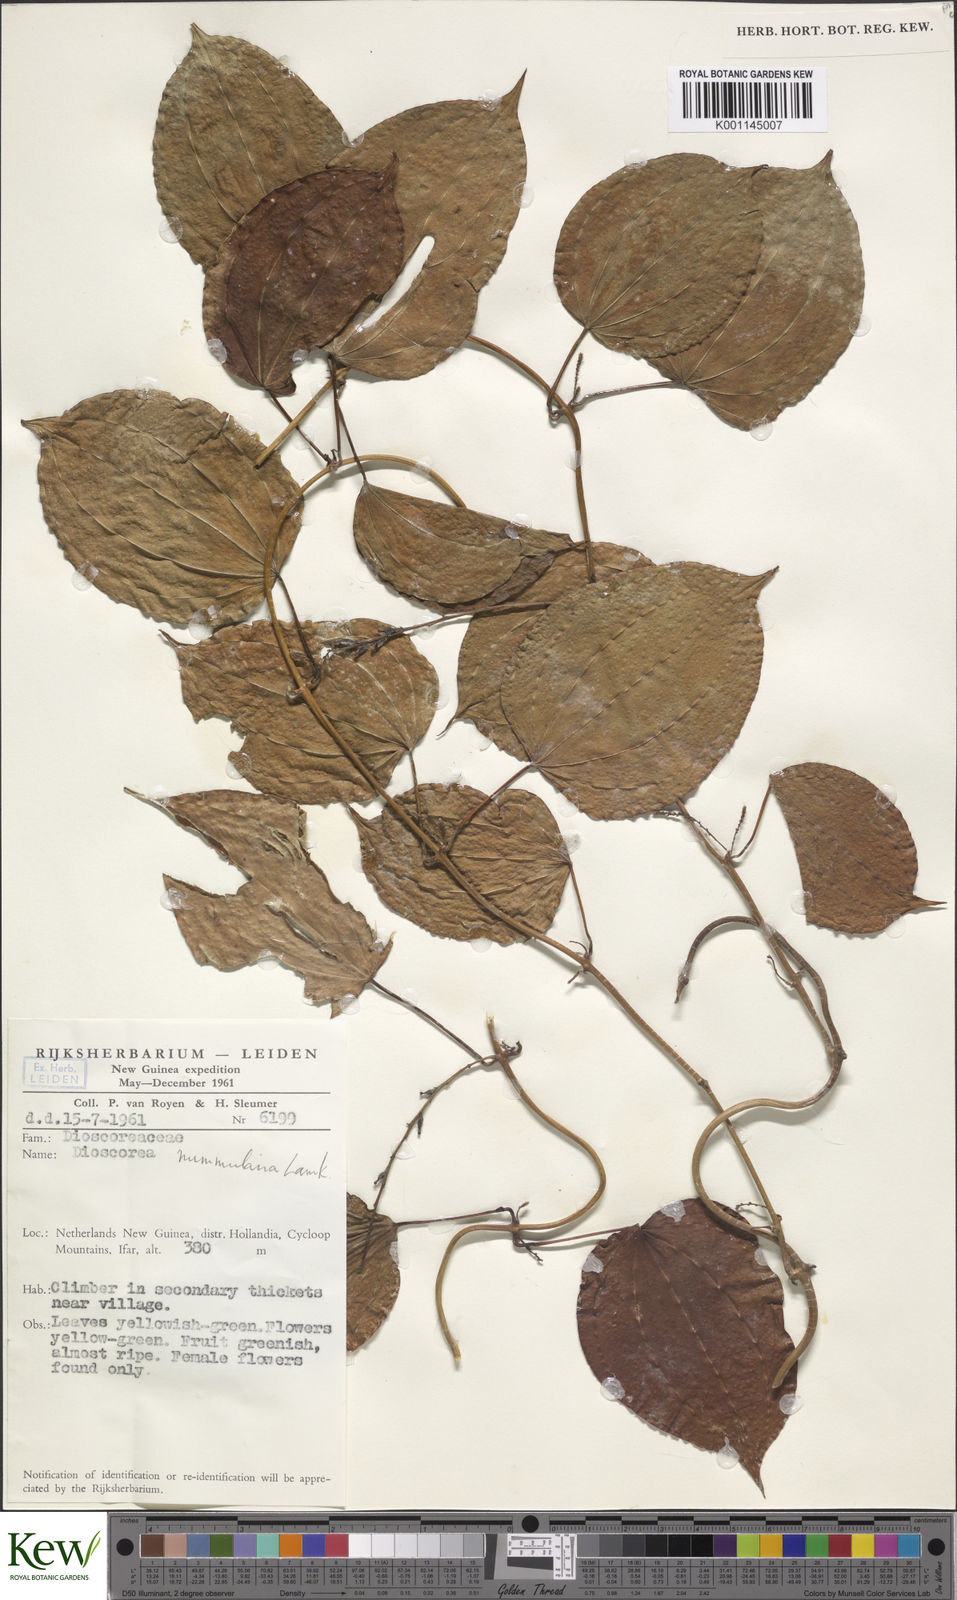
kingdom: Plantae
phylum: Tracheophyta
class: Liliopsida
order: Dioscoreales
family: Dioscoreaceae
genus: Dioscorea
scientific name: Dioscorea nummularia
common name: Pacific yam
